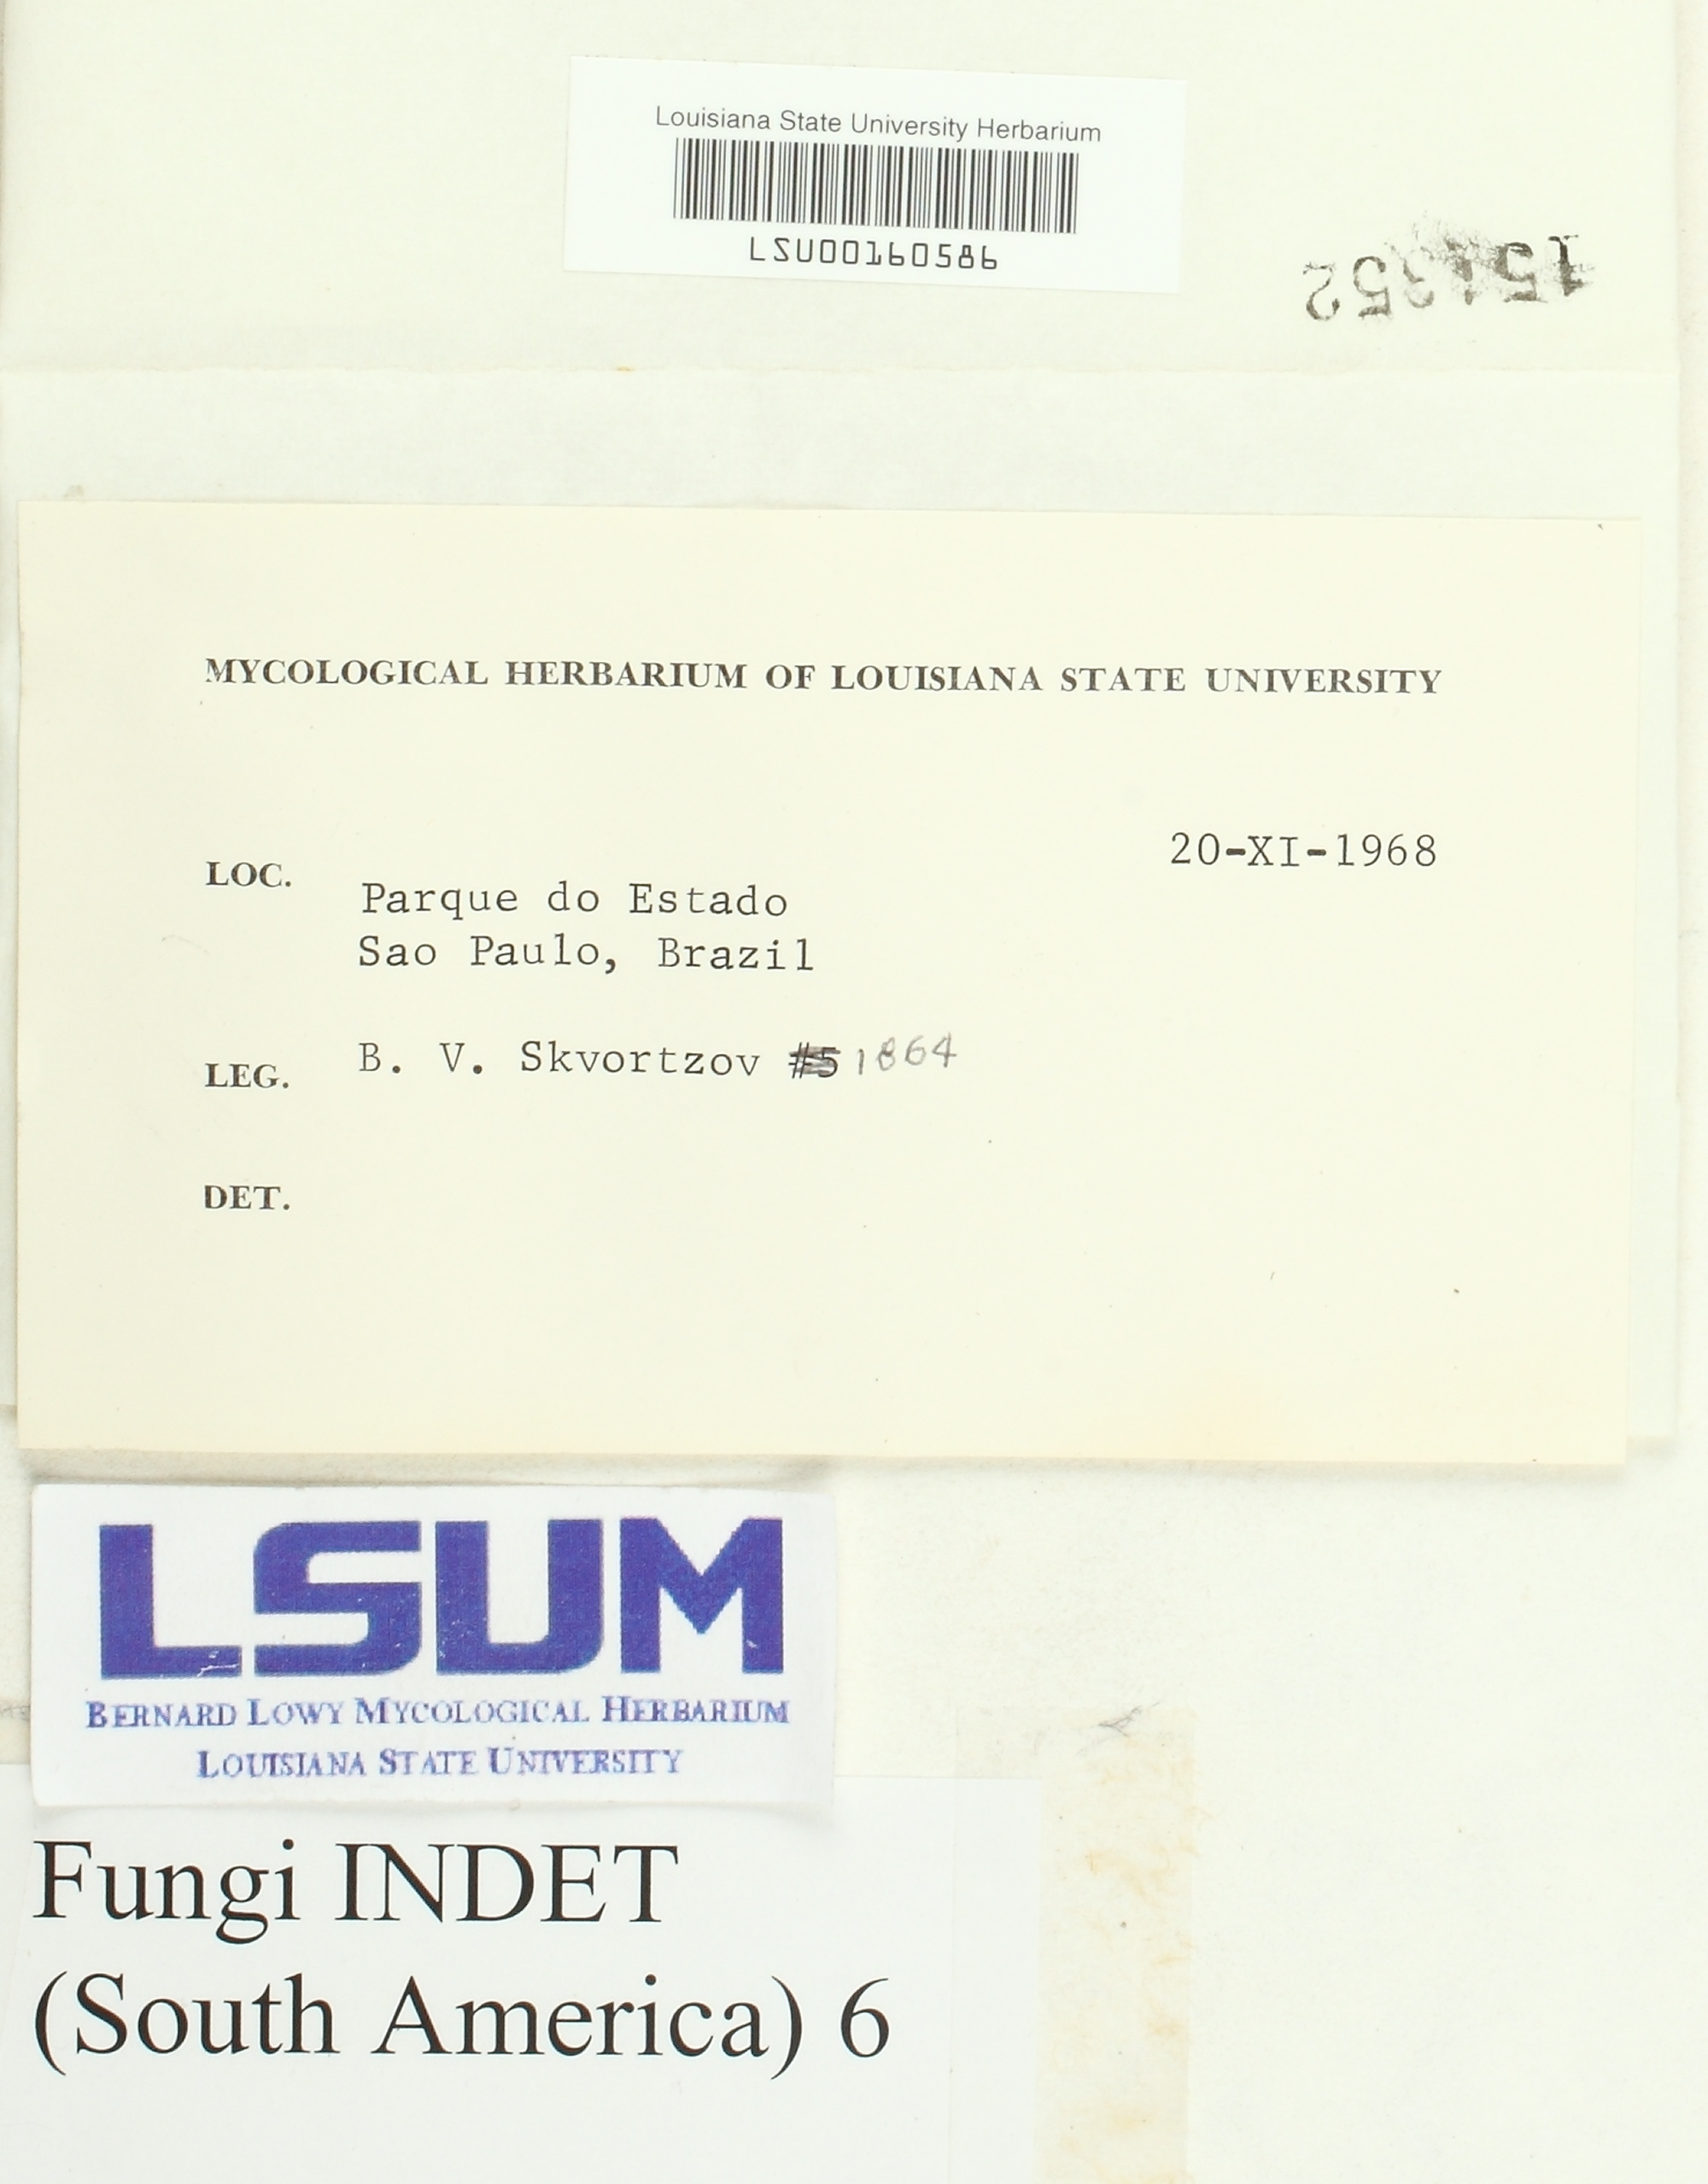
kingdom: Fungi
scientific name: Fungi
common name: Fungi
